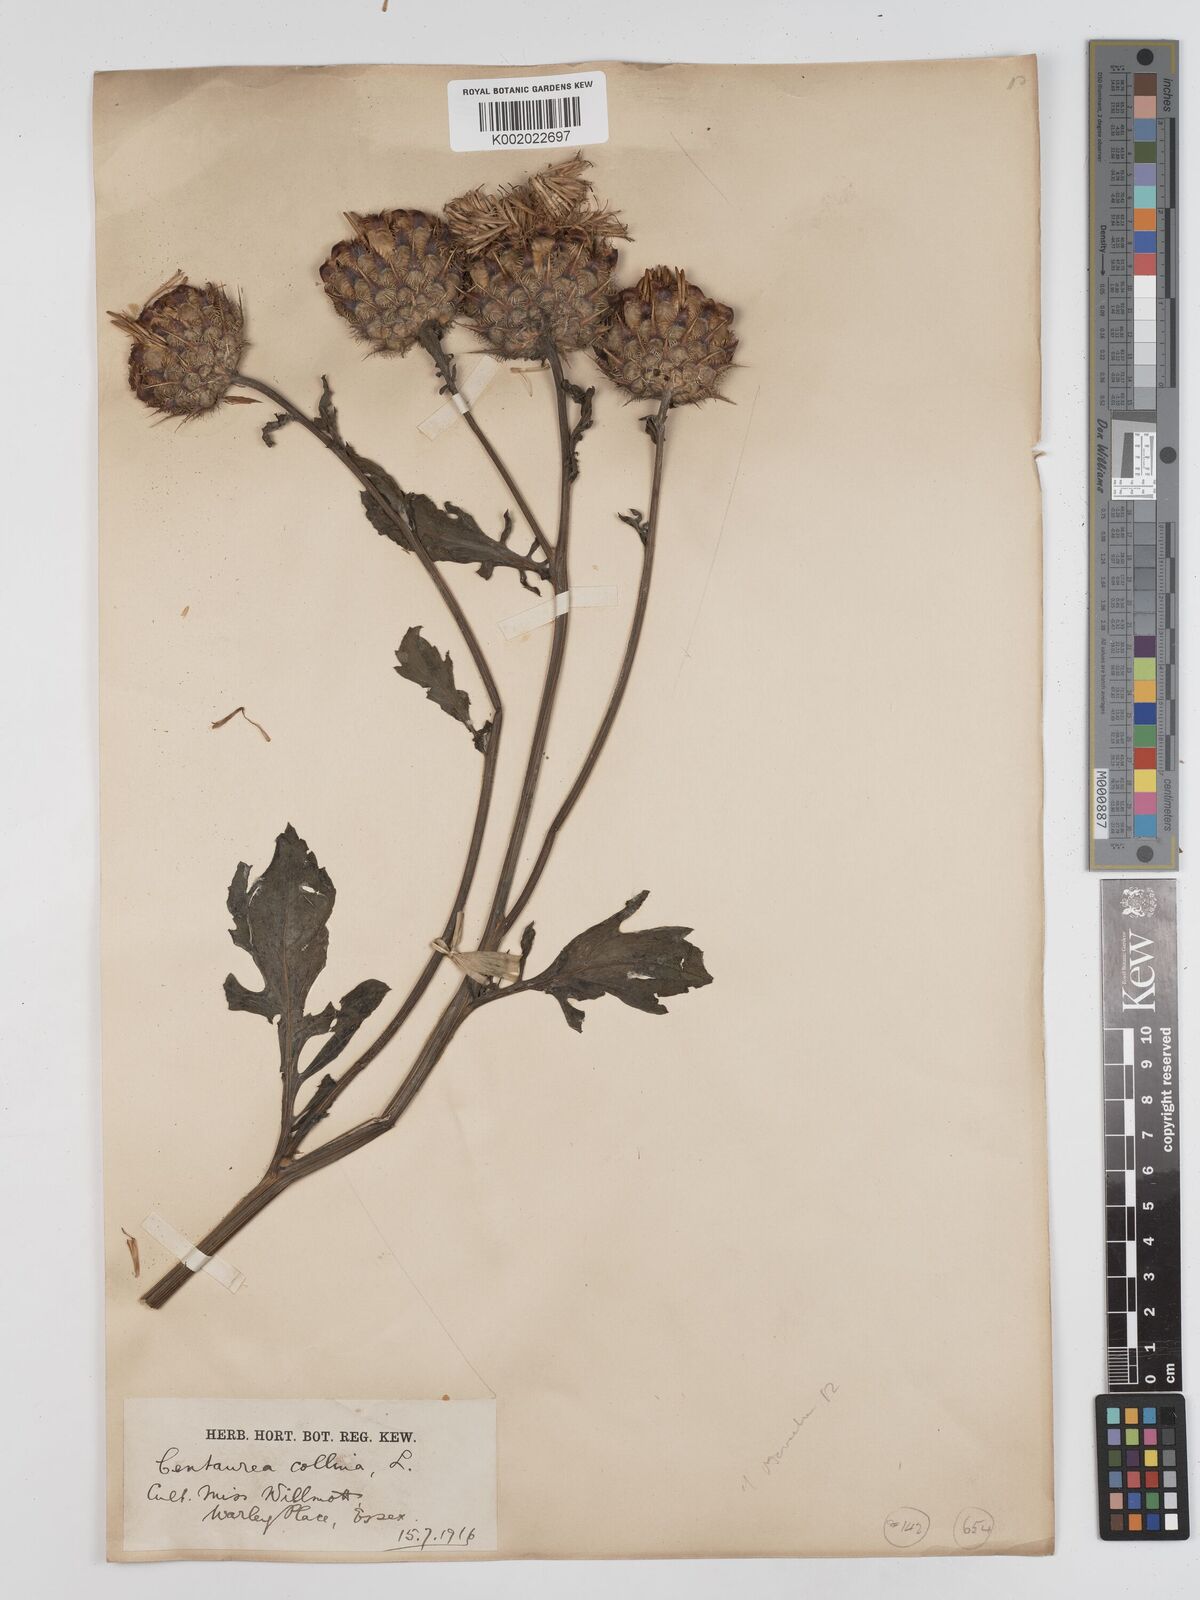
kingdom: Plantae
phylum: Tracheophyta
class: Magnoliopsida
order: Asterales
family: Asteraceae
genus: Centaurea
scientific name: Centaurea collina
